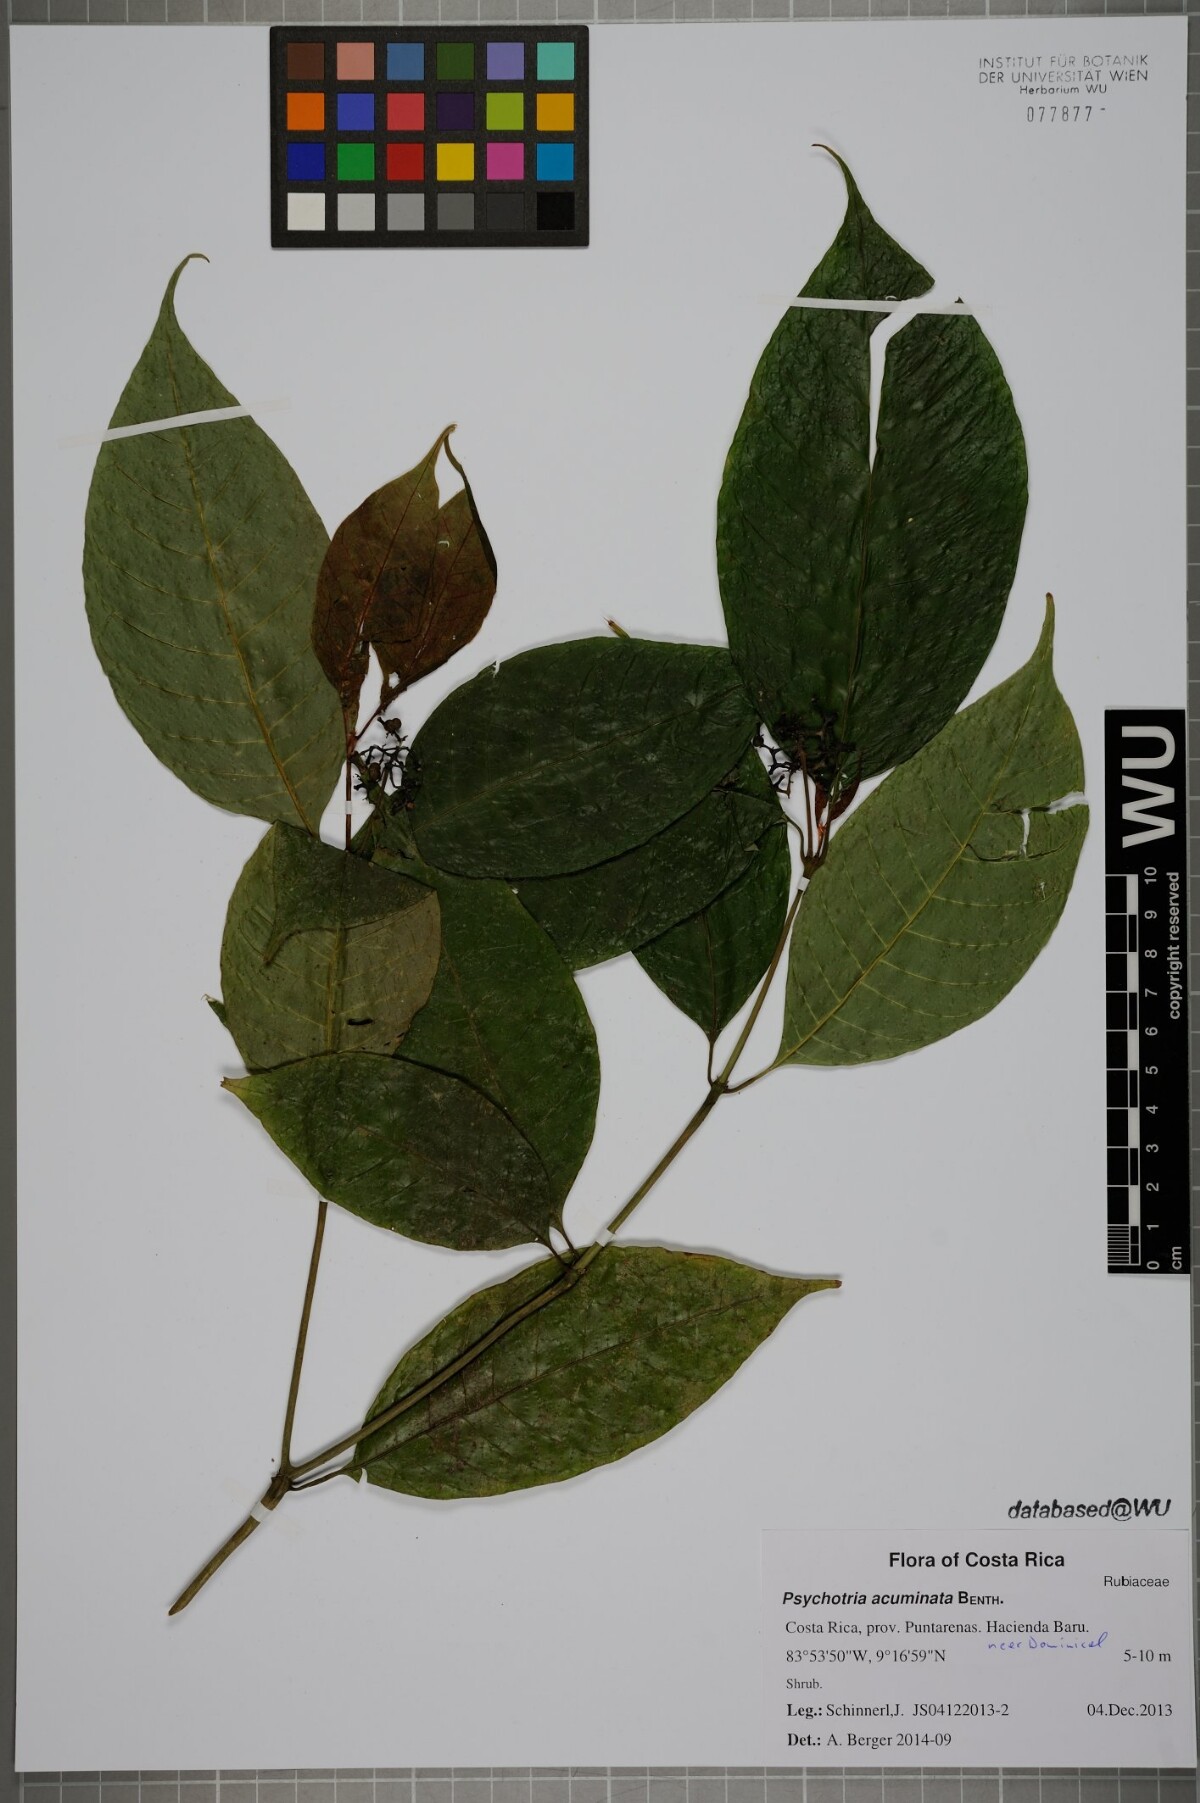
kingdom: Plantae
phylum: Tracheophyta
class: Magnoliopsida
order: Gentianales
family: Rubiaceae
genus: Palicourea
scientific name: Palicourea acuminata
